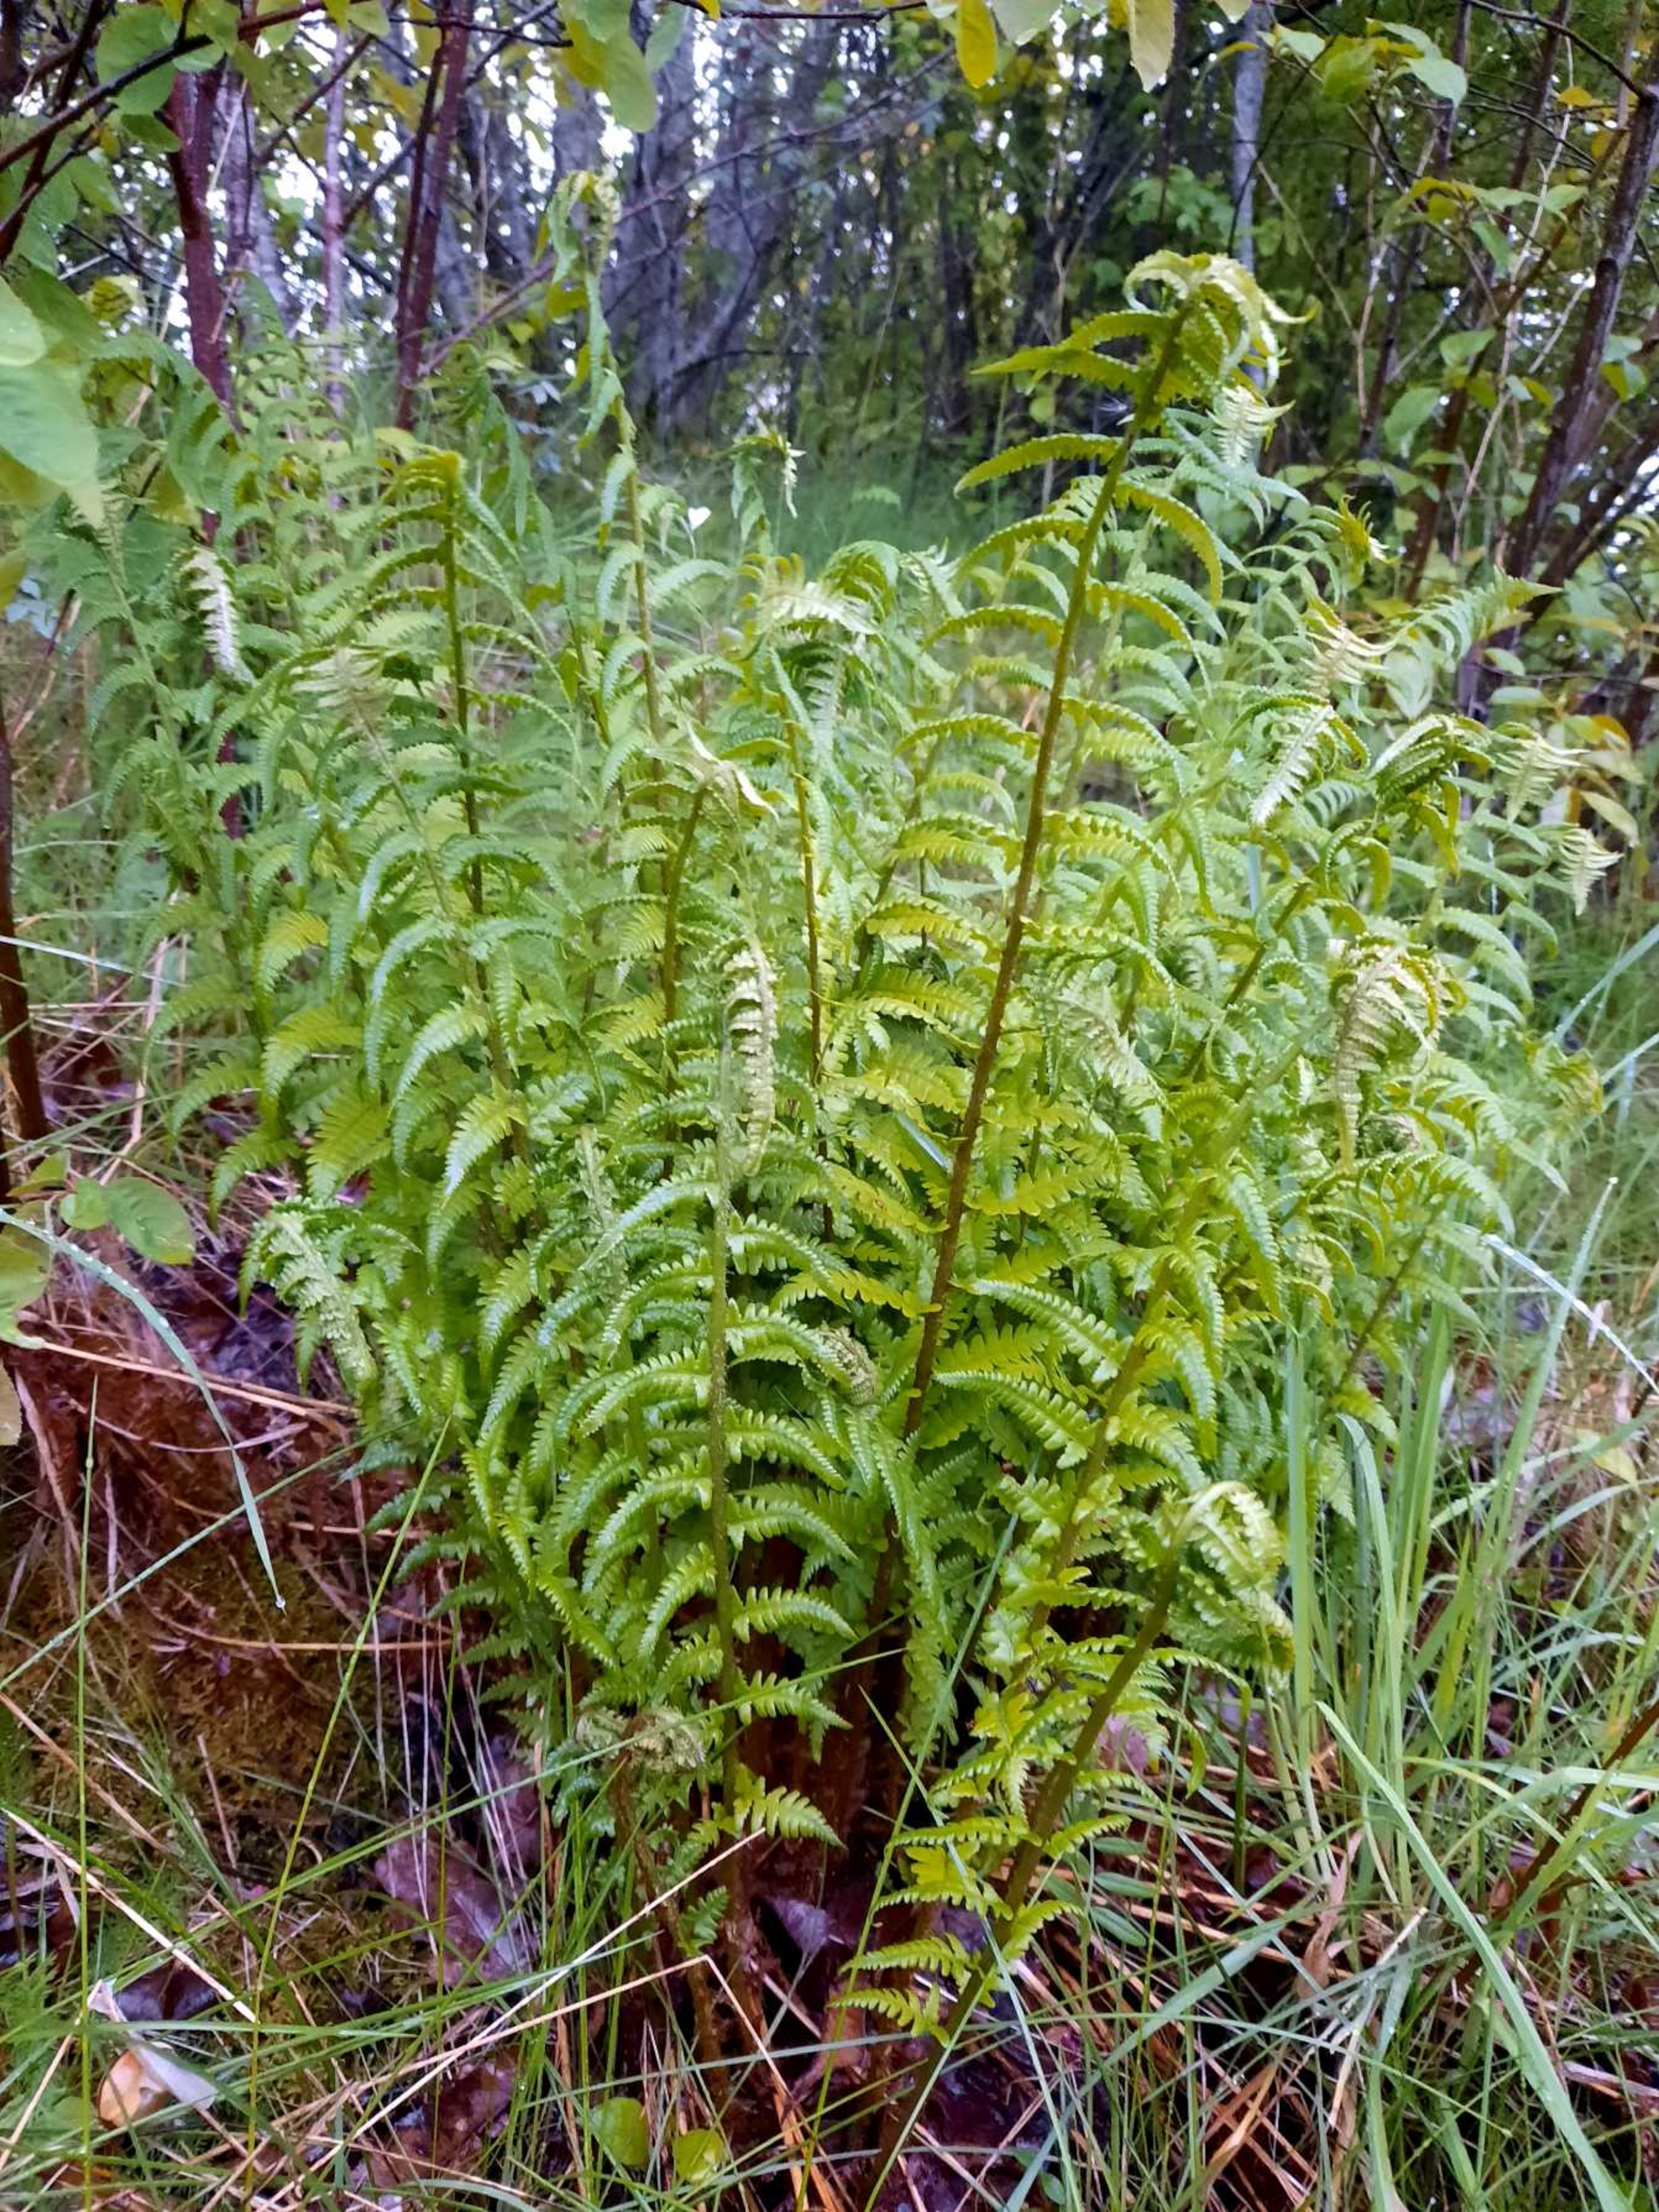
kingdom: Plantae
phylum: Tracheophyta
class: Polypodiopsida
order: Polypodiales
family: Dryopteridaceae
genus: Dryopteris
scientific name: Dryopteris filix-mas
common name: Almindelig mangeløv
